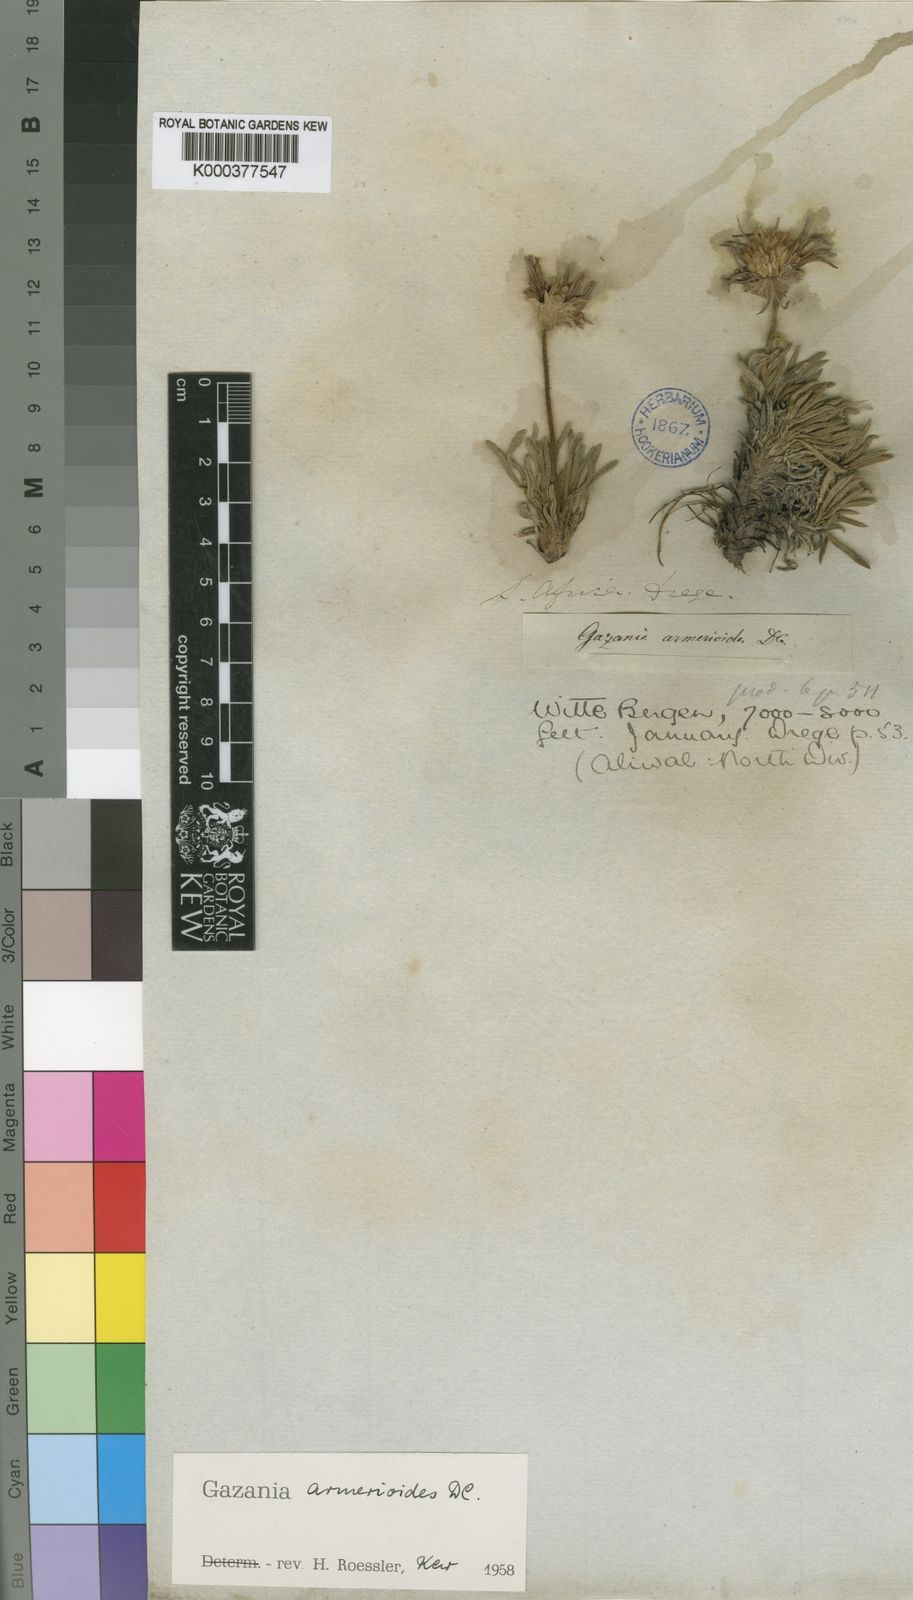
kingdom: Plantae
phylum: Tracheophyta
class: Magnoliopsida
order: Asterales
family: Asteraceae
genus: Roessleria
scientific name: Roessleria armerioides
